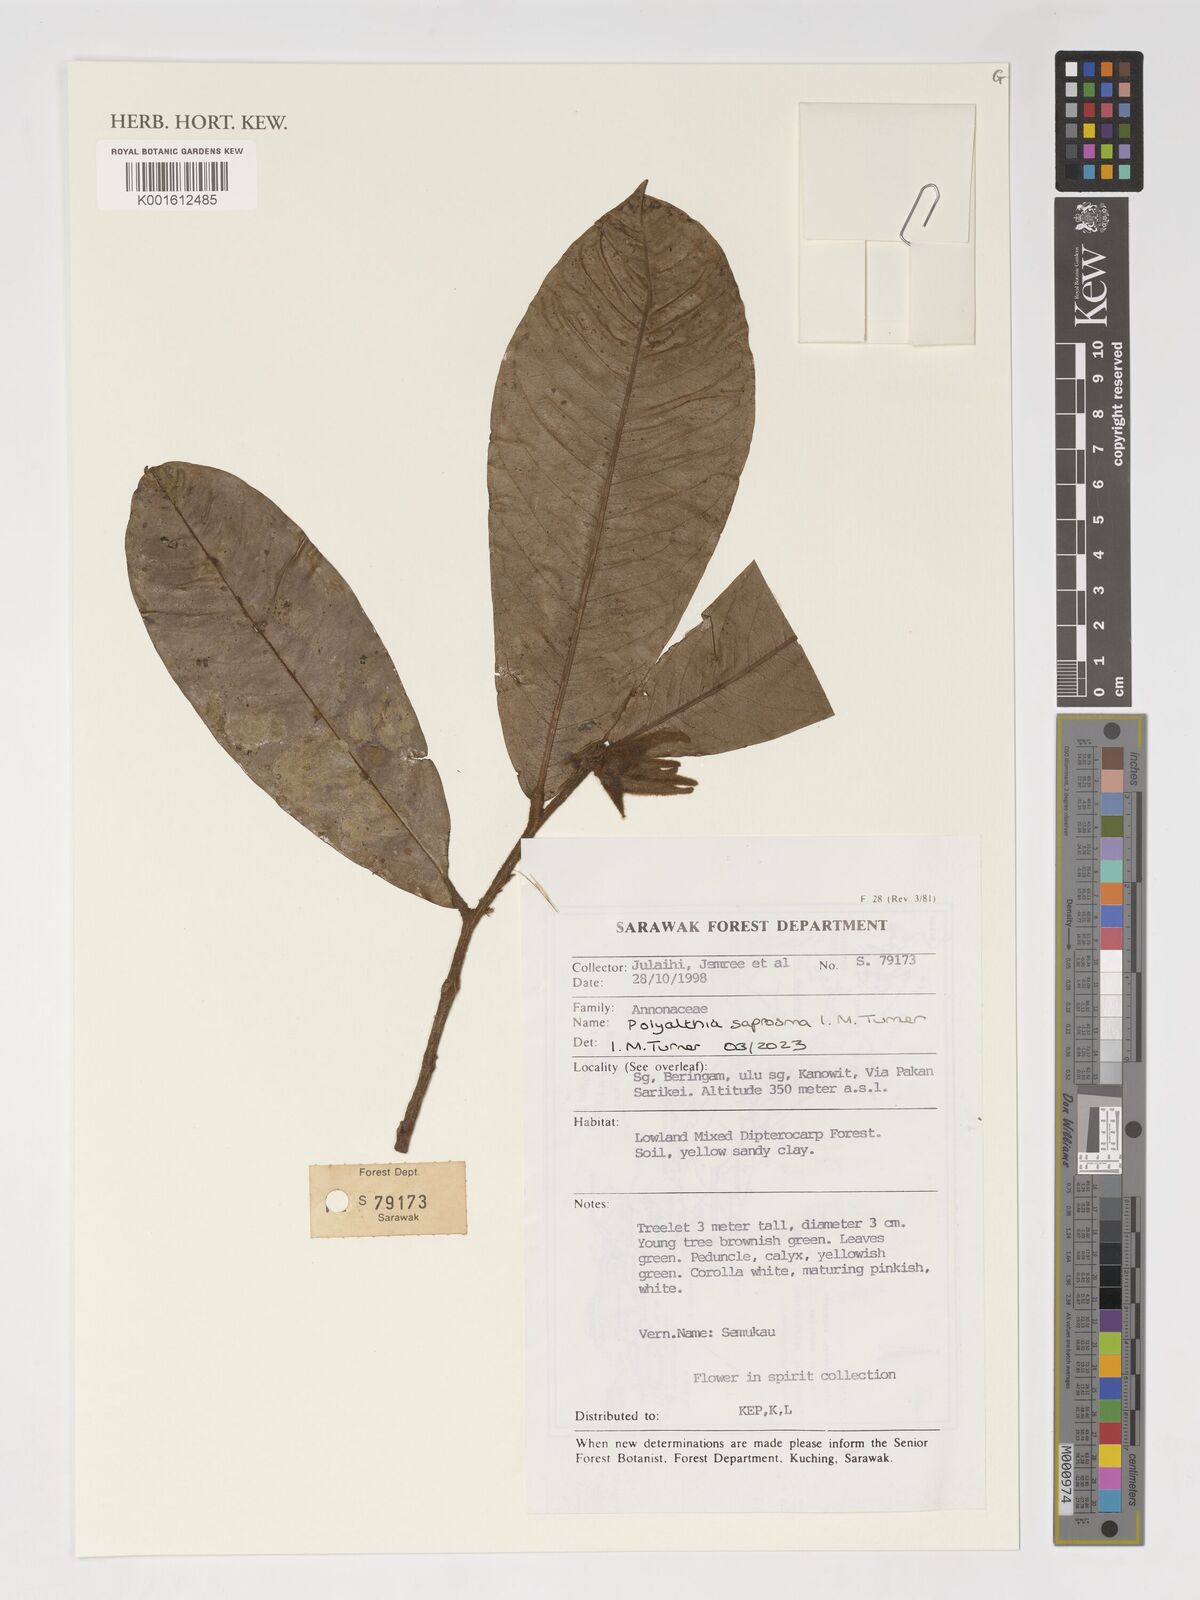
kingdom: Plantae
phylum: Tracheophyta
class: Magnoliopsida
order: Magnoliales
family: Annonaceae
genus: Polyalthia
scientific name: Polyalthia saprosma
